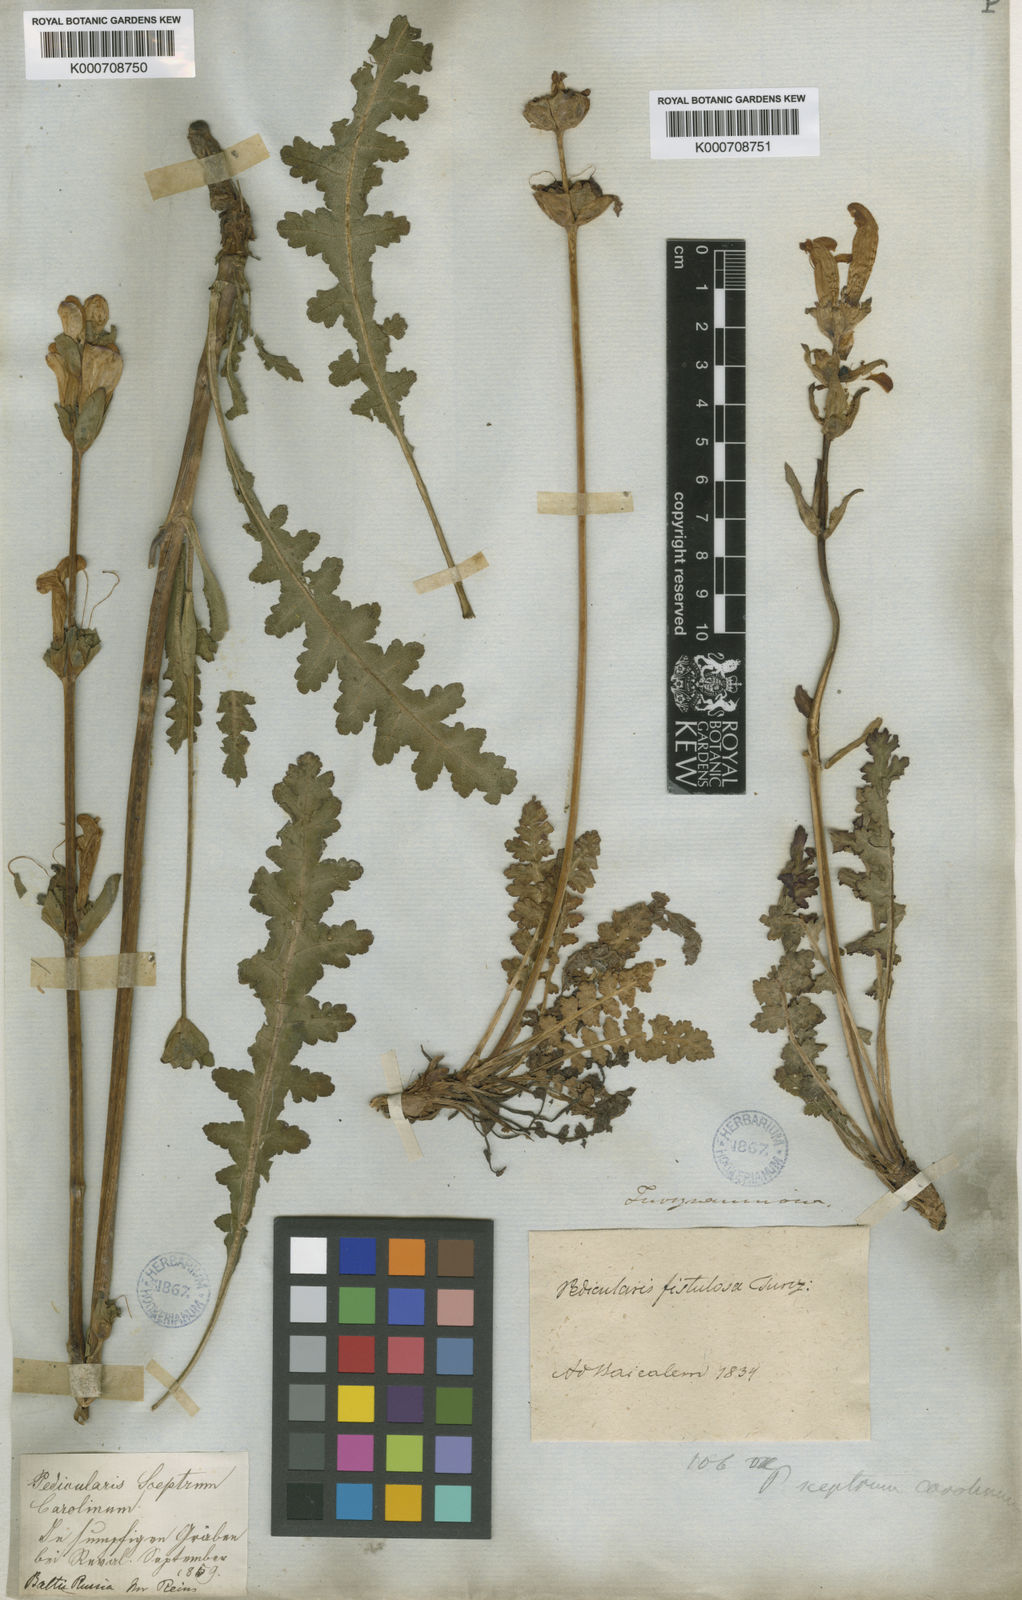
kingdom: Plantae
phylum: Tracheophyta
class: Magnoliopsida
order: Lamiales
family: Orobanchaceae
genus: Pedicularis
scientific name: Pedicularis sceptrum-carolinum
